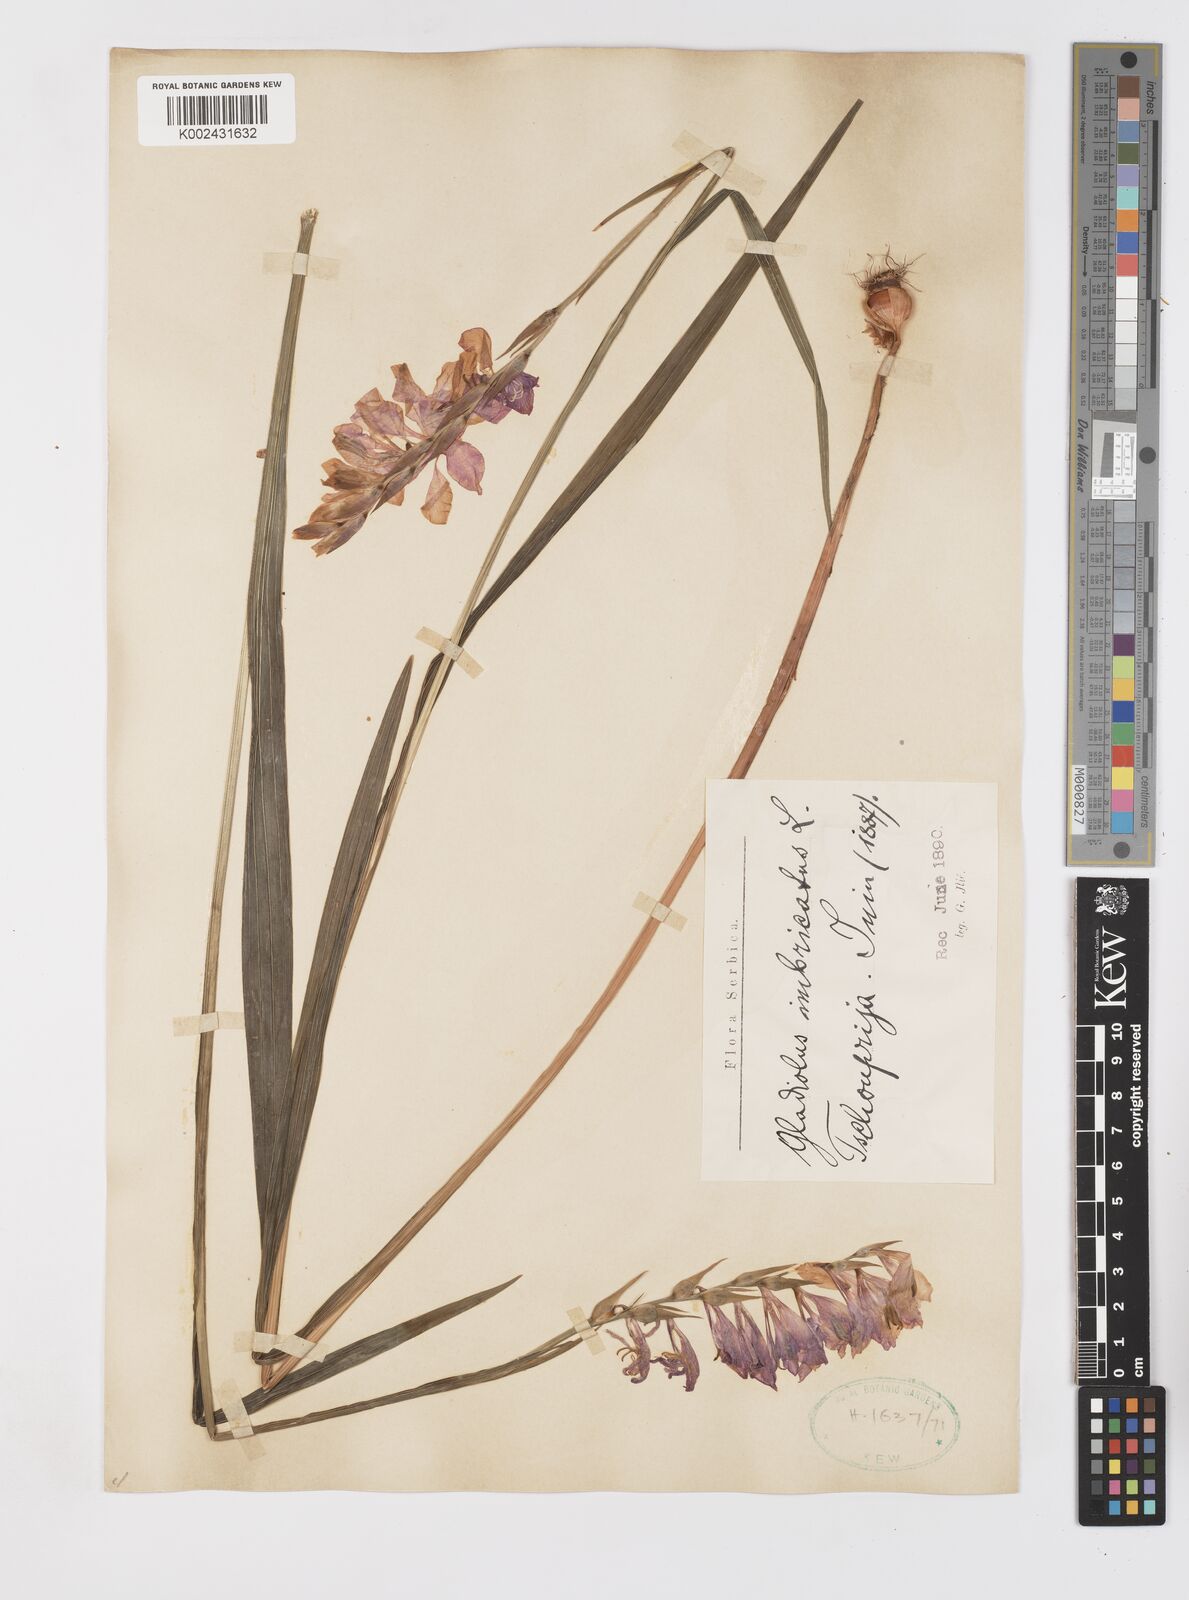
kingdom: Plantae
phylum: Tracheophyta
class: Liliopsida
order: Asparagales
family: Iridaceae
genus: Gladiolus
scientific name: Gladiolus imbricatus
